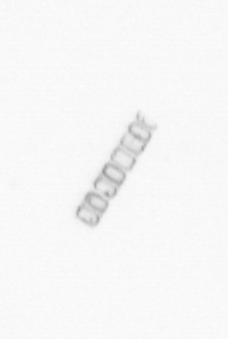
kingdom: Chromista
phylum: Ochrophyta
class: Bacillariophyceae
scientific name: Bacillariophyceae
